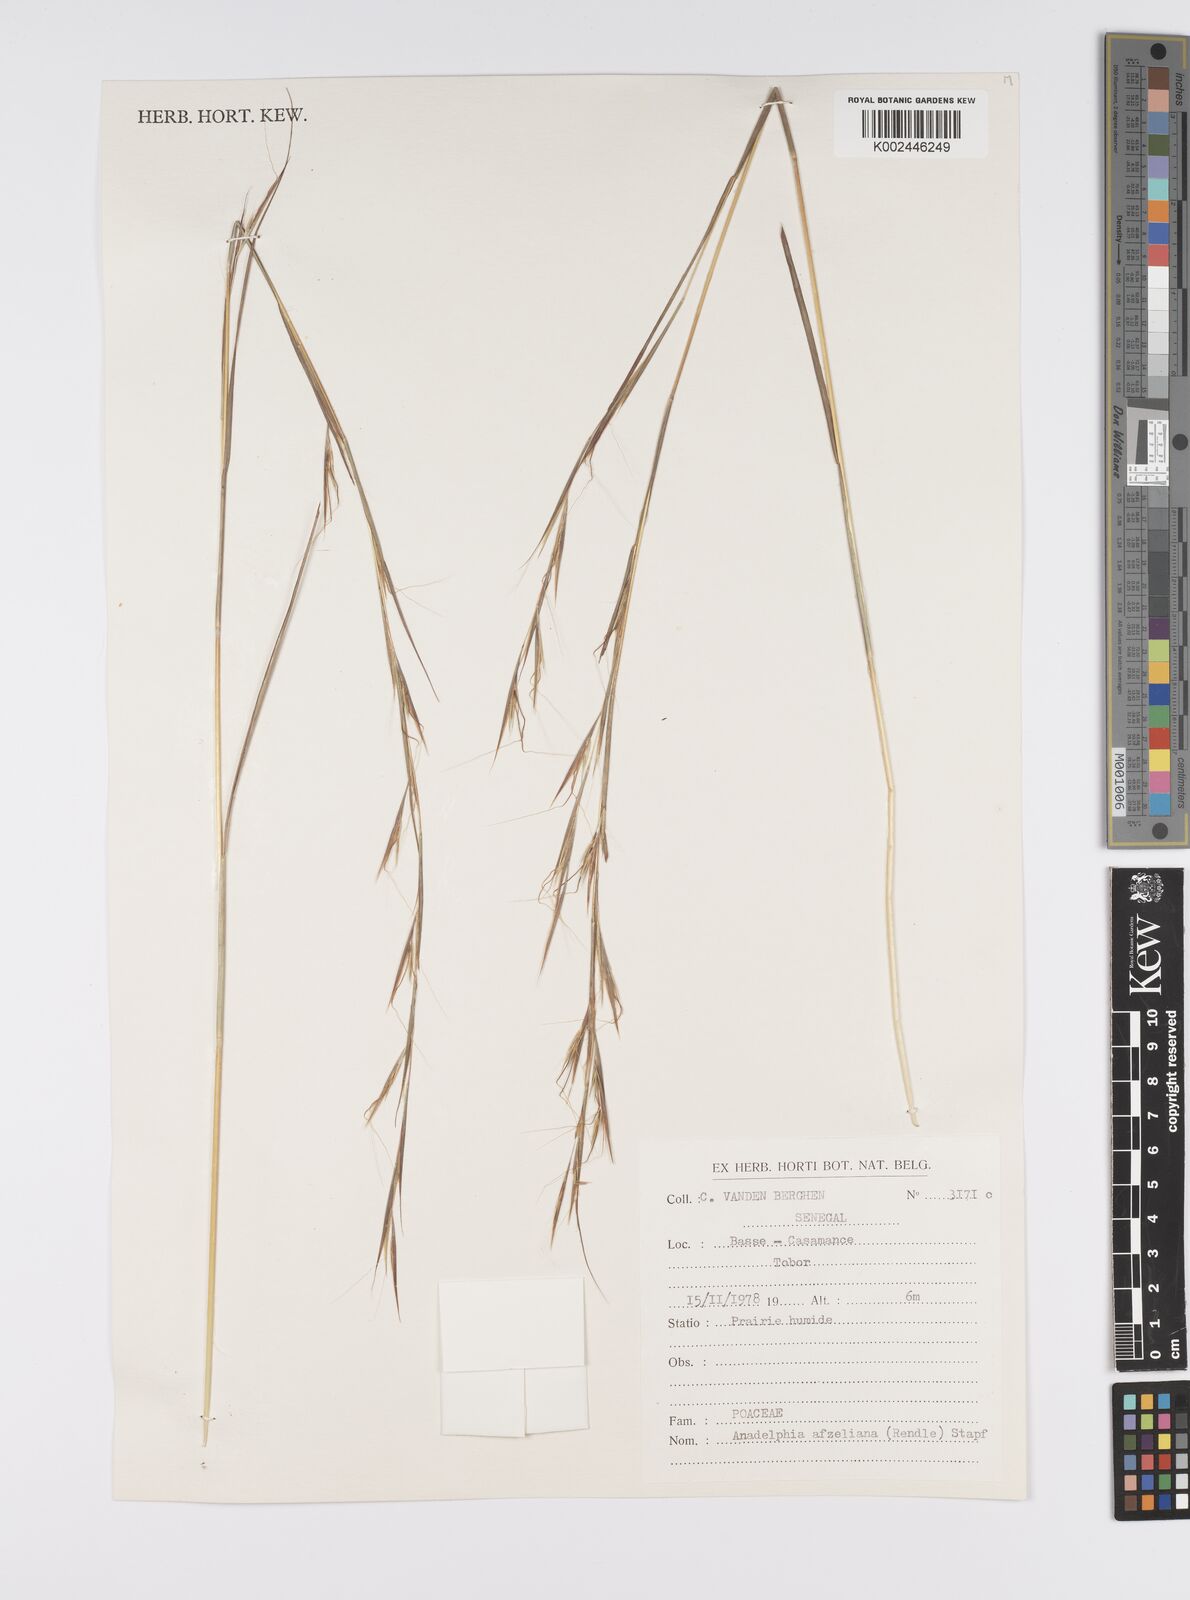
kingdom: Plantae
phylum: Tracheophyta
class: Liliopsida
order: Poales
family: Poaceae
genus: Anadelphia
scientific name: Anadelphia afzeliana
